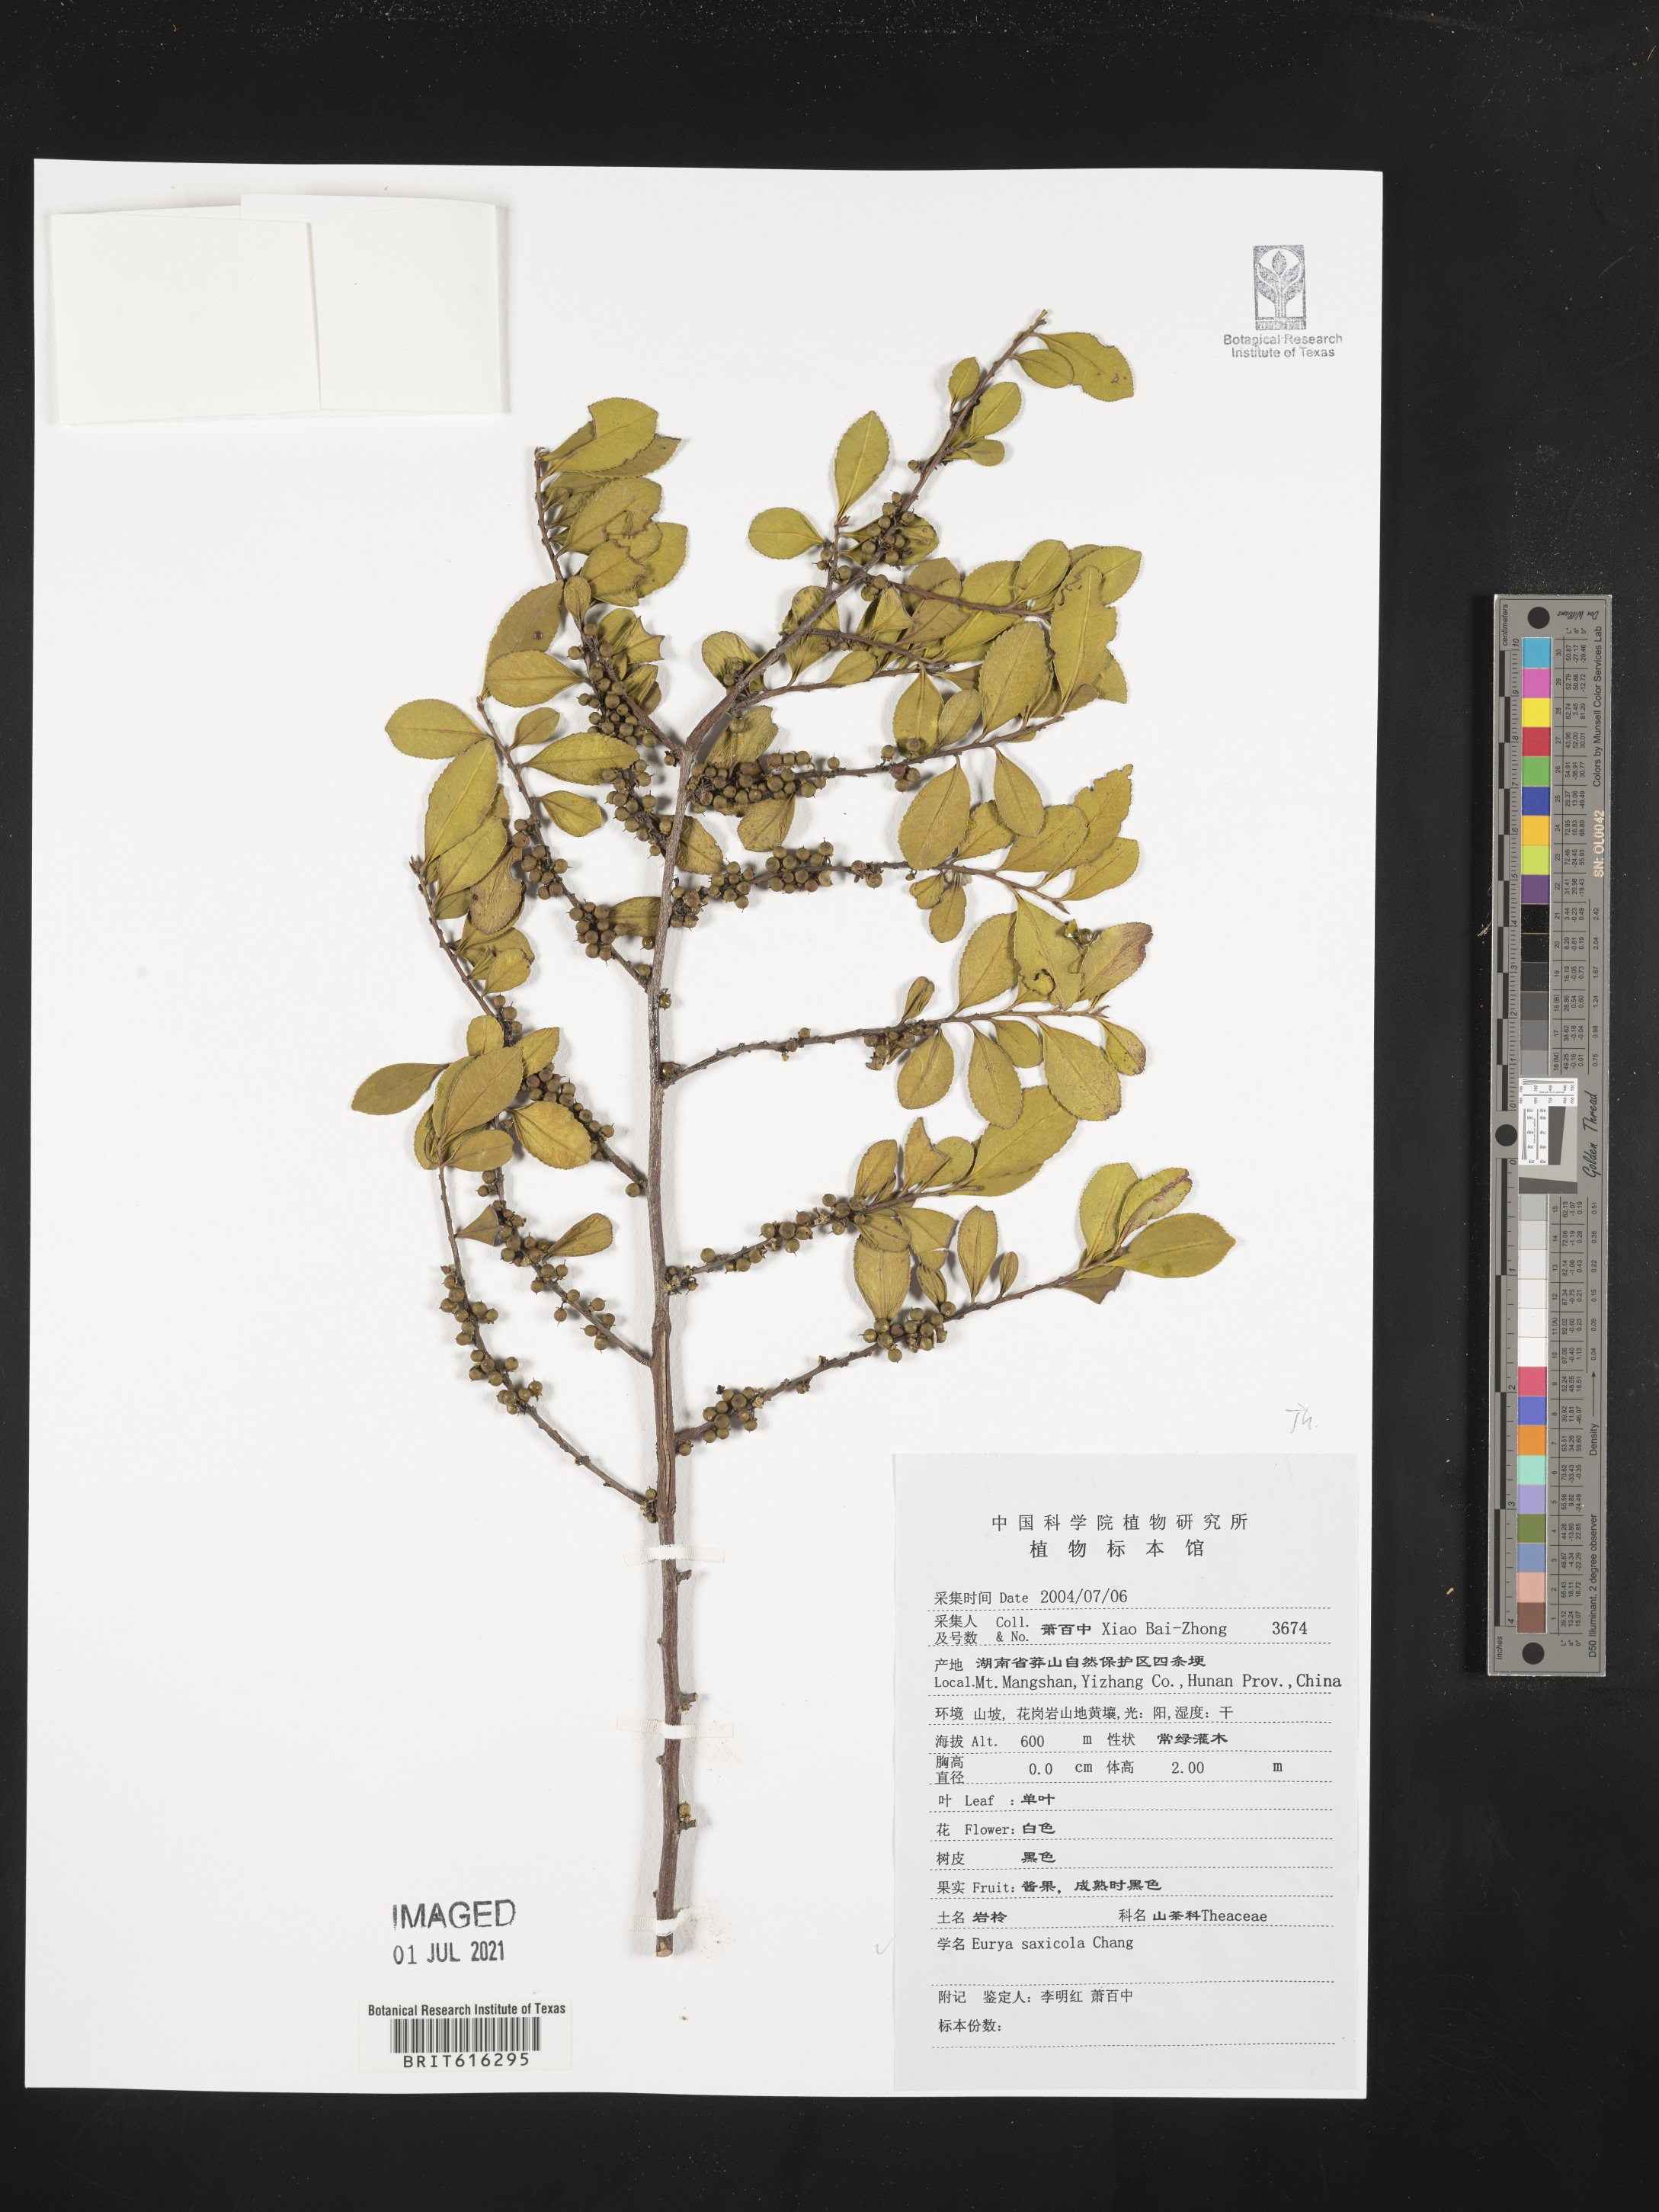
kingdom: Plantae
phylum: Tracheophyta
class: Magnoliopsida
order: Ericales
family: Pentaphylacaceae
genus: Eurya
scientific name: Eurya saxicola
